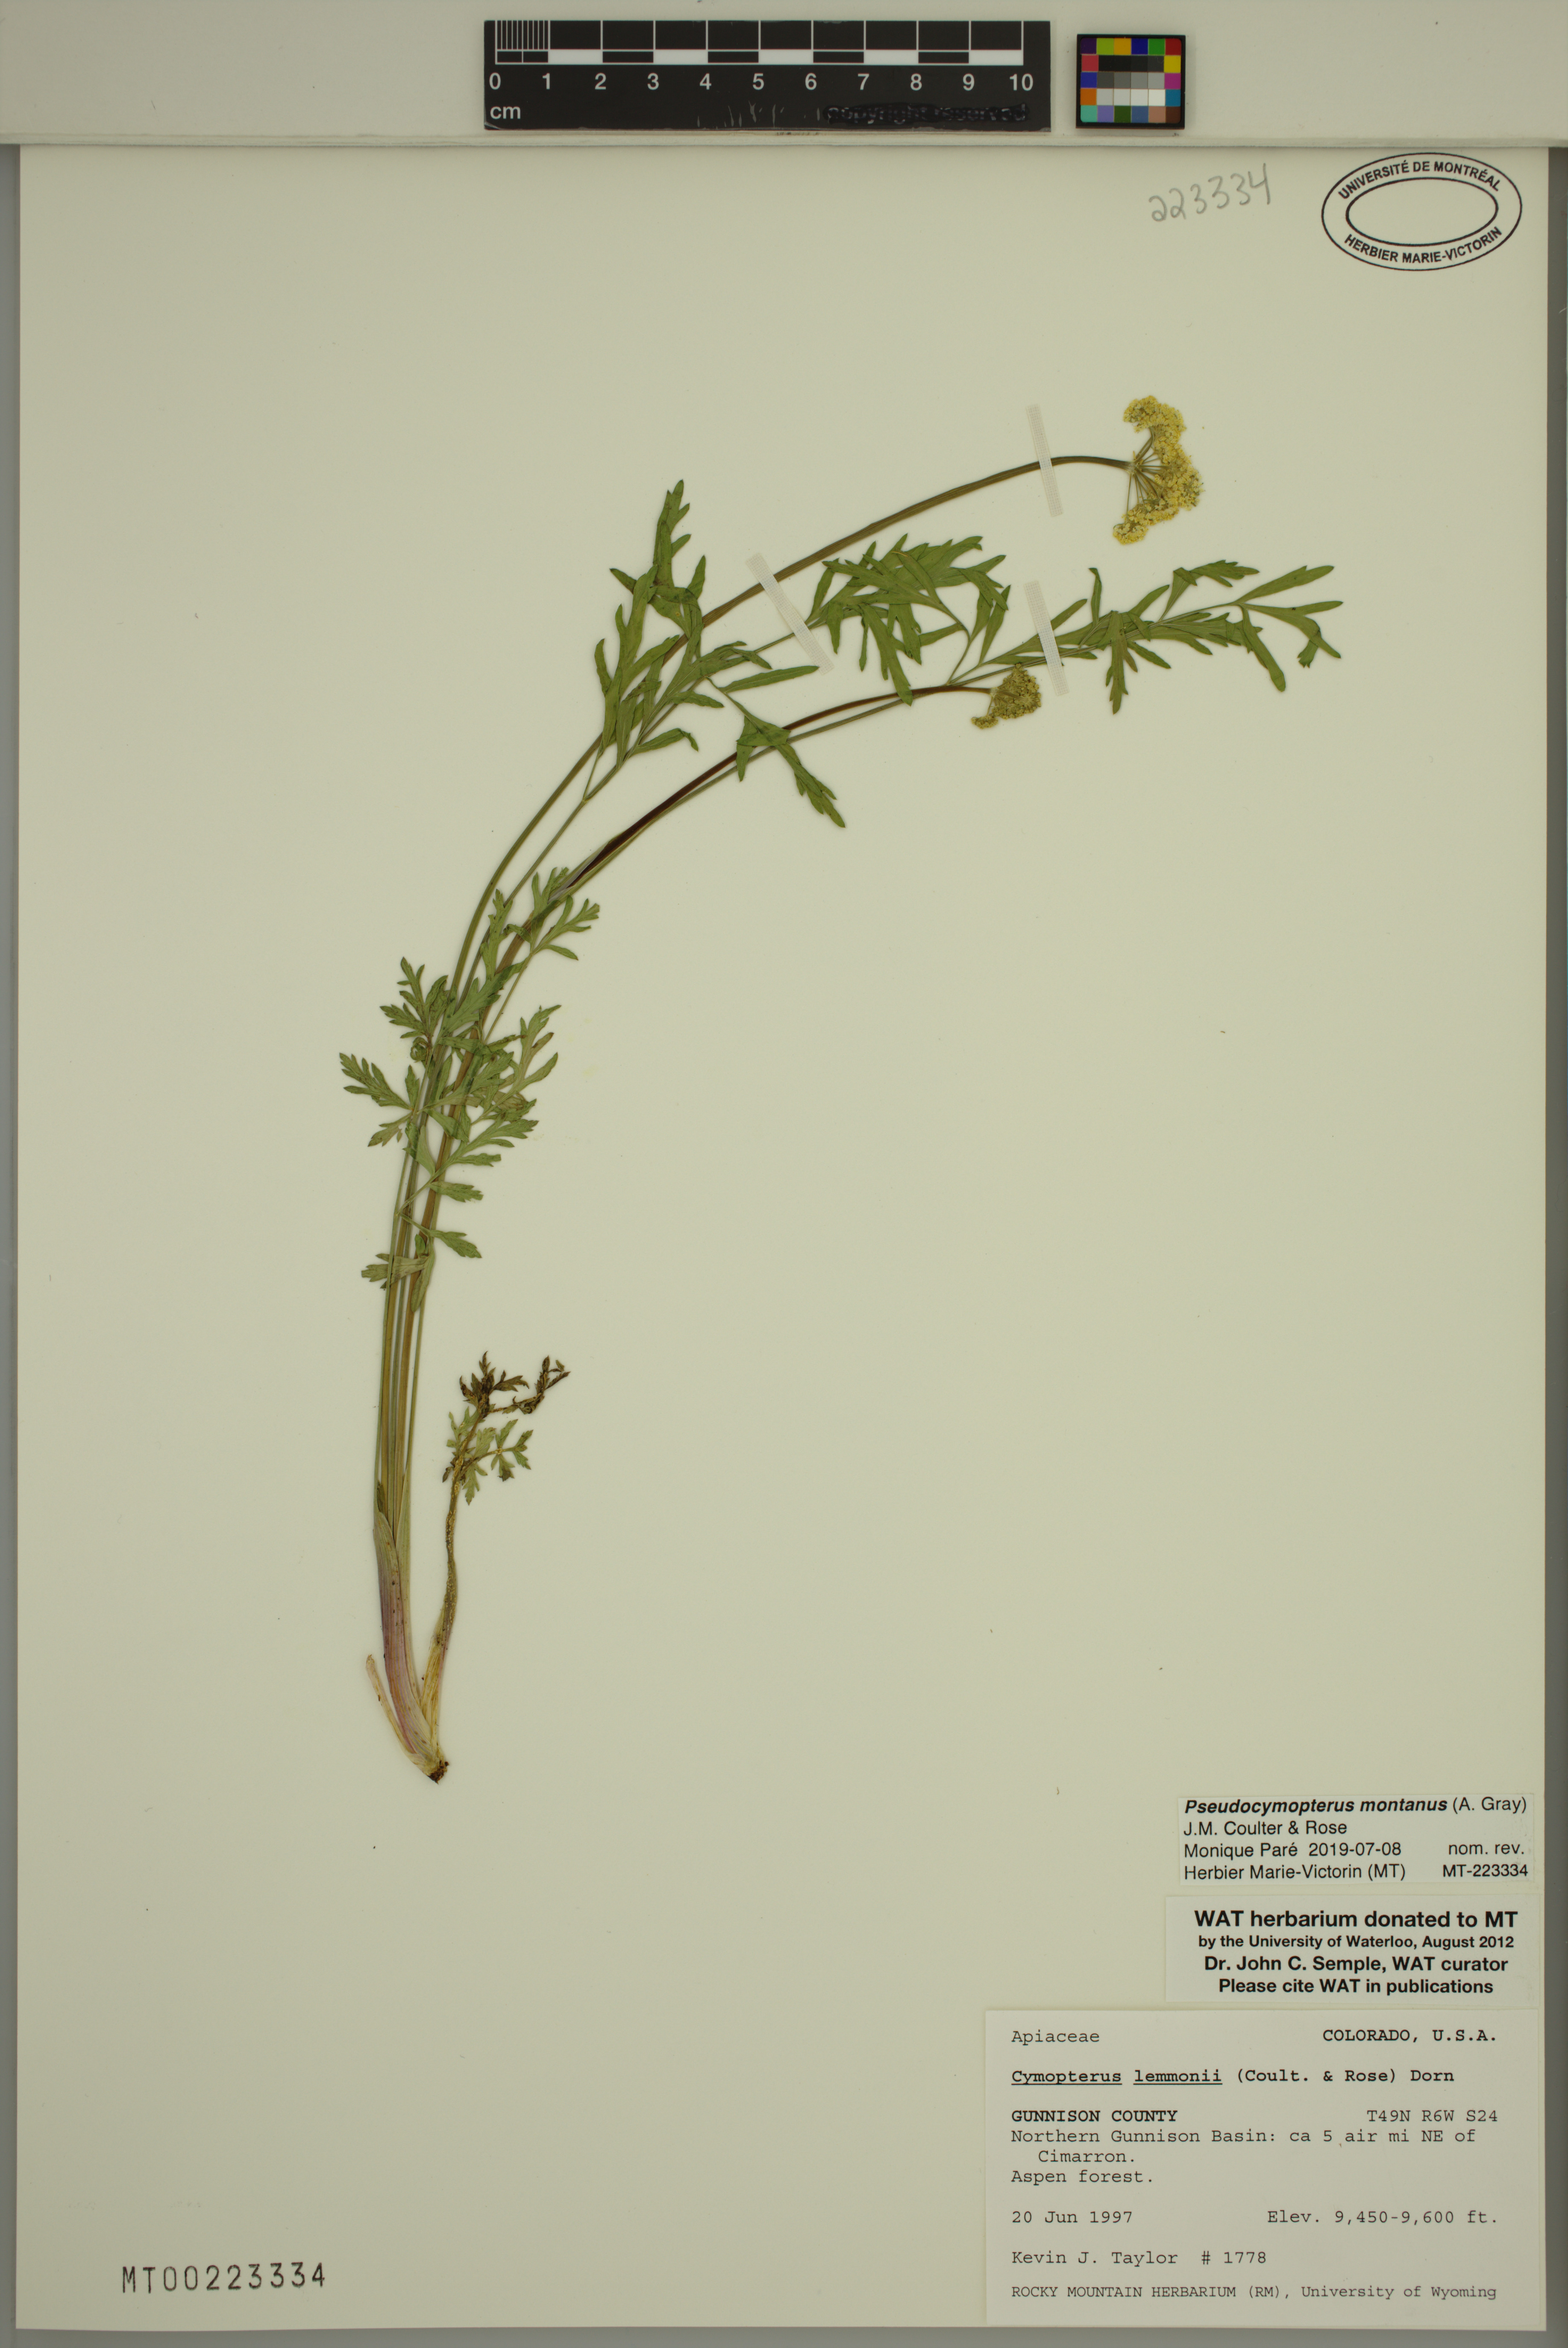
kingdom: Plantae
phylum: Tracheophyta
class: Magnoliopsida
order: Apiales
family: Apiaceae
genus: Cymopterus
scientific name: Cymopterus lemmonii
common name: Lemmon's spring-parsley
